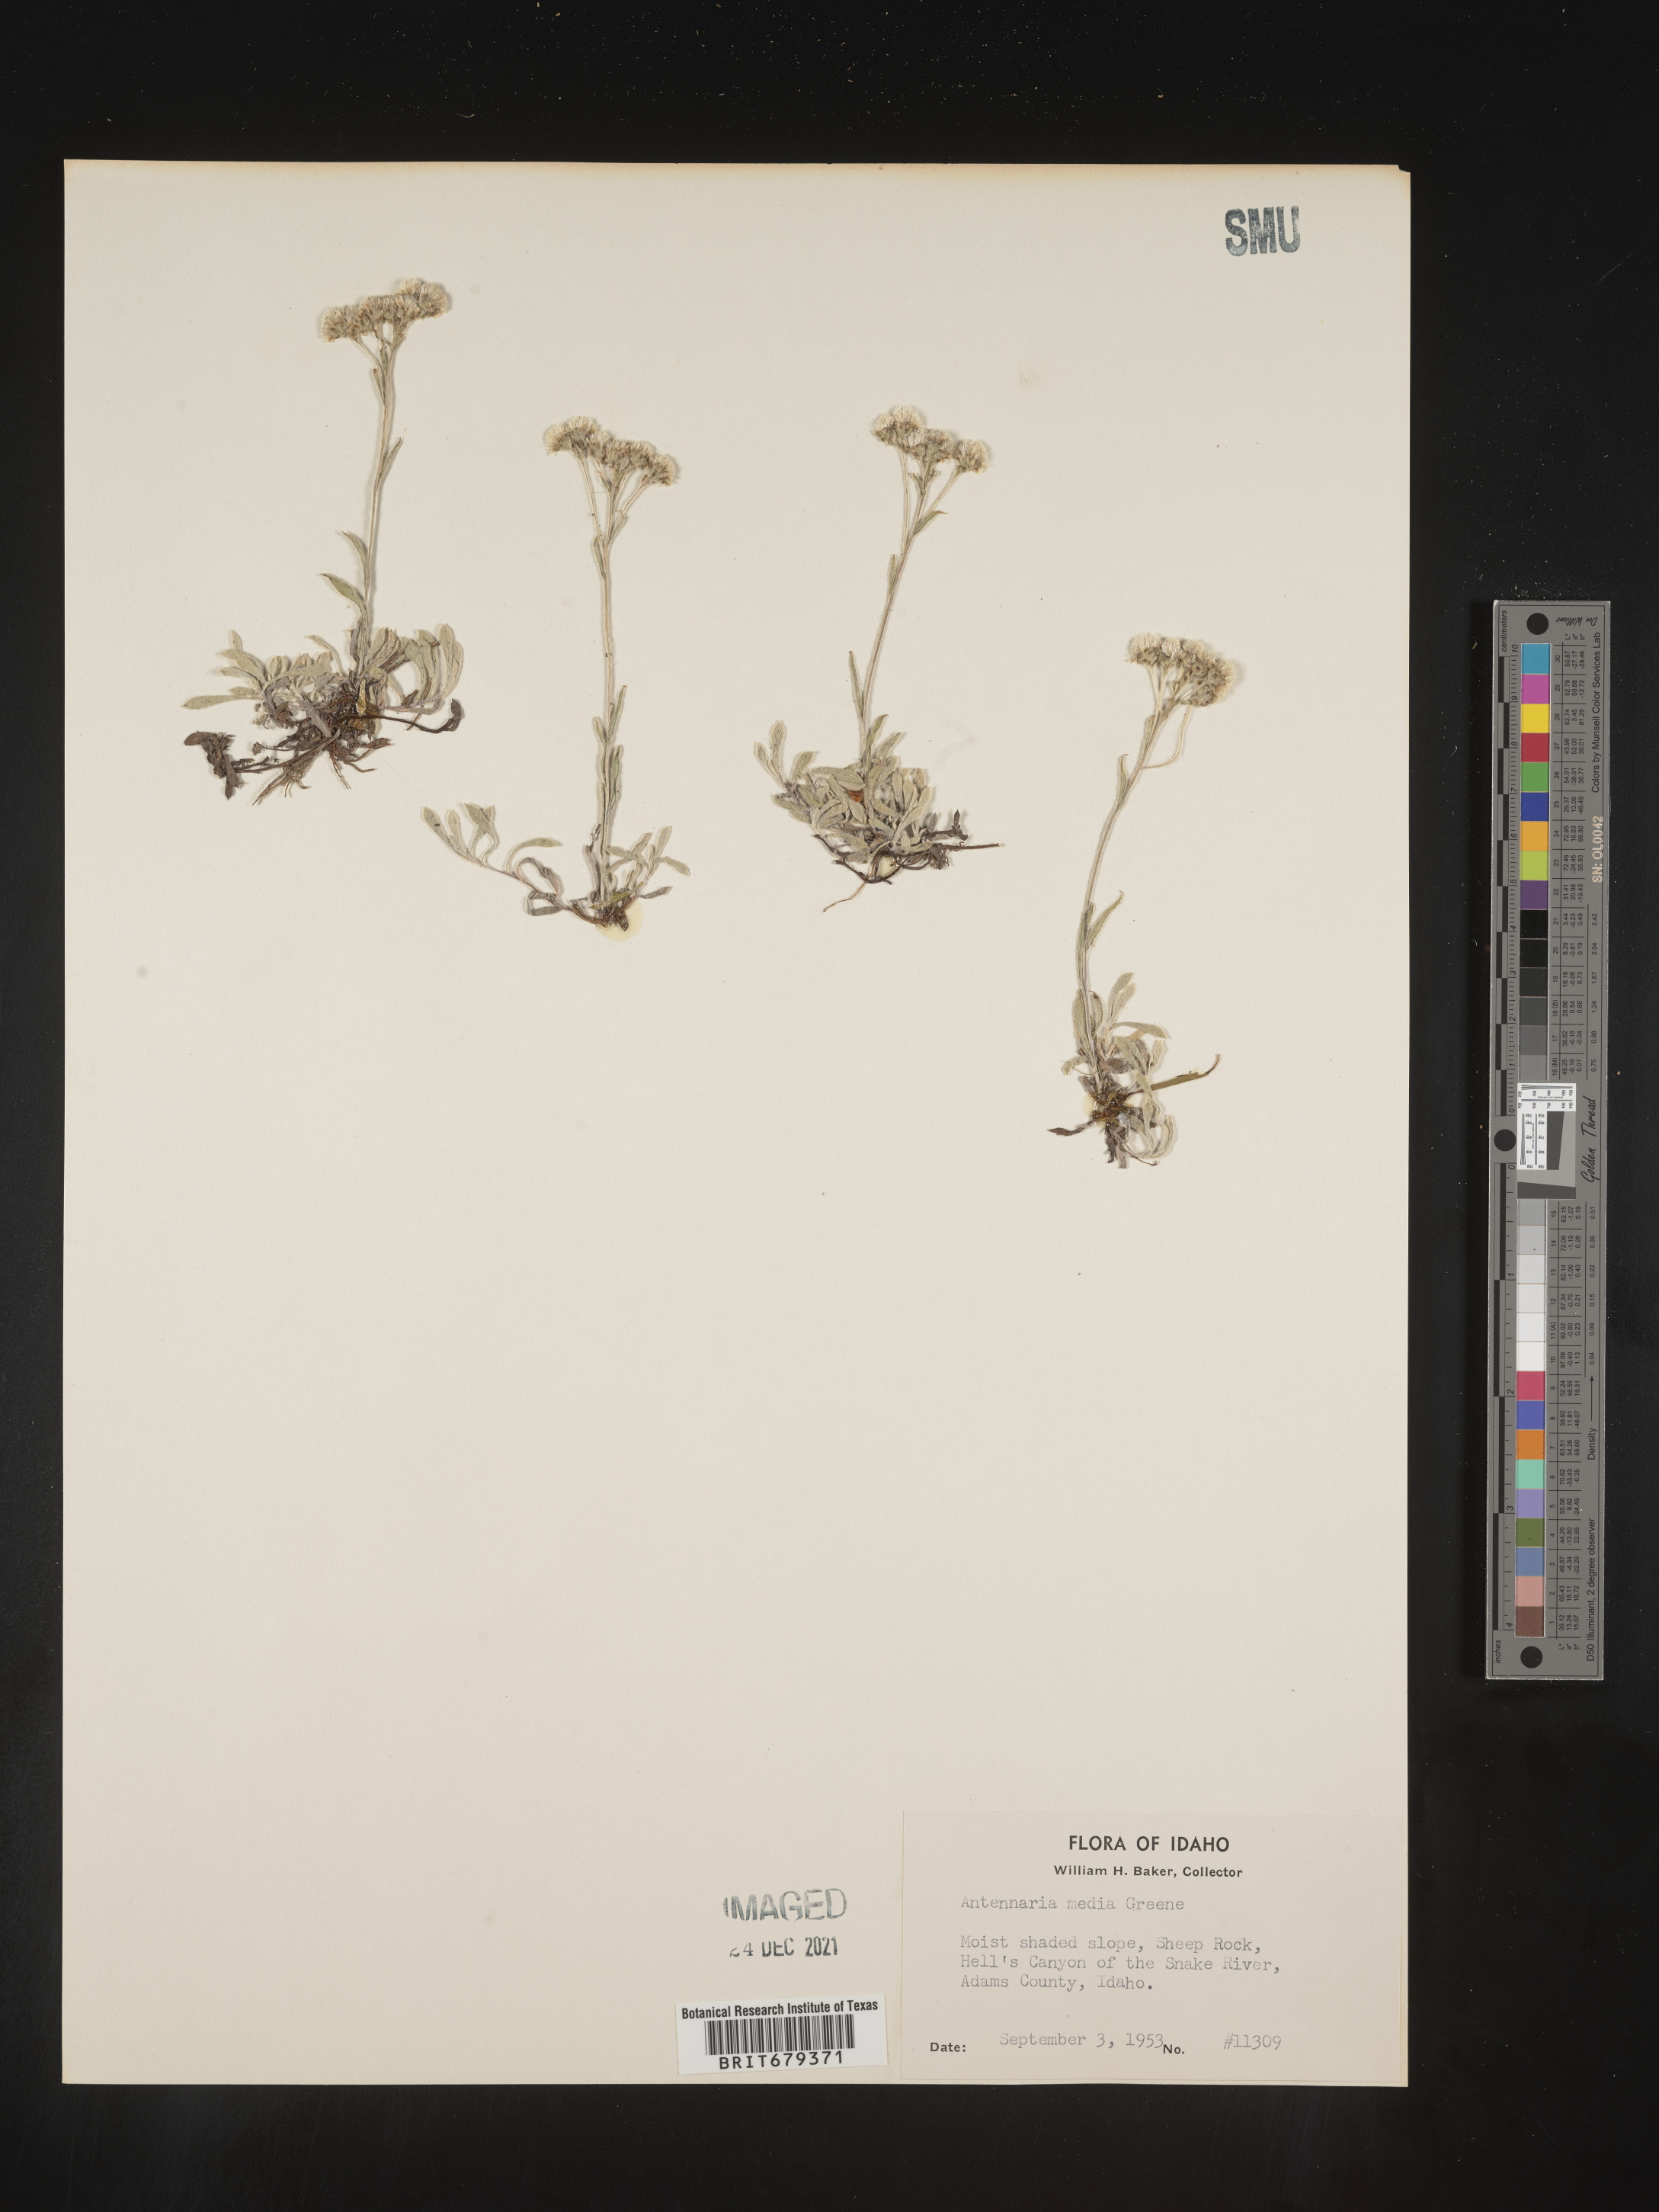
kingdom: Plantae
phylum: Tracheophyta
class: Magnoliopsida
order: Asterales
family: Asteraceae
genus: Antennaria
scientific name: Antennaria corymbosa
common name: Meadow pussytoes
